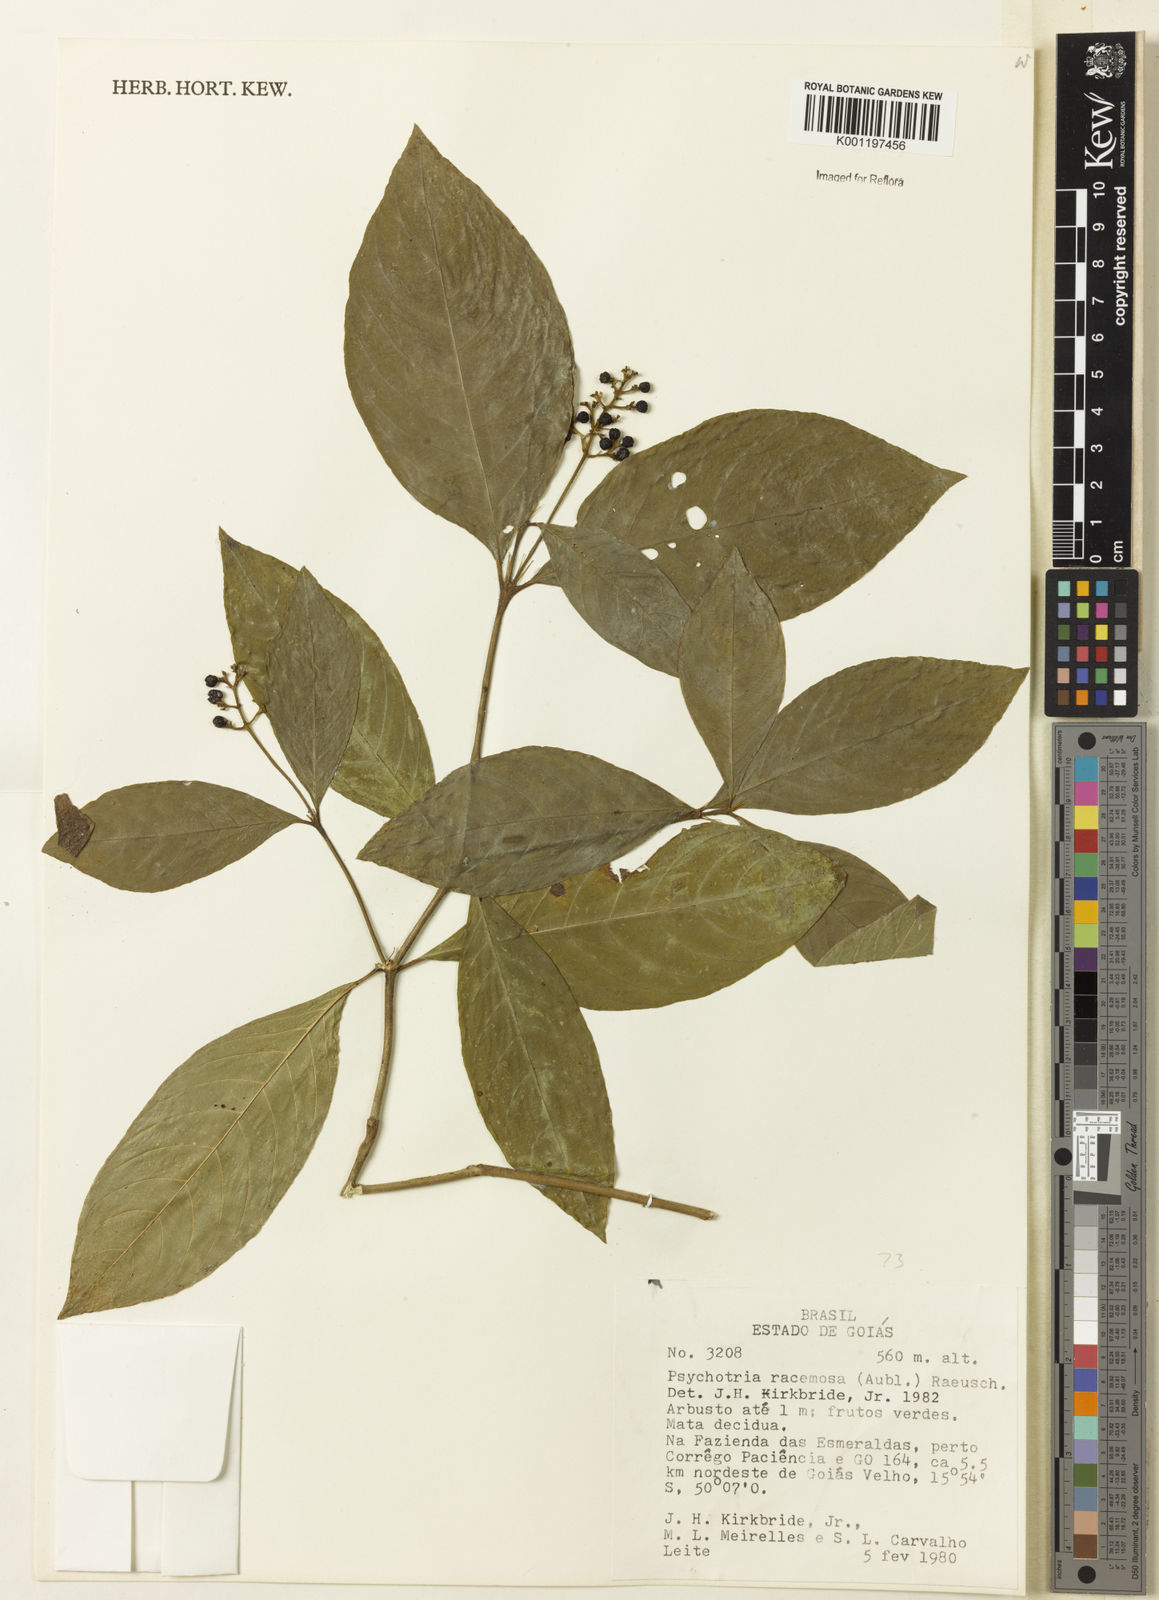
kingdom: Plantae
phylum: Tracheophyta
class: Magnoliopsida
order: Gentianales
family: Rubiaceae
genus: Palicourea
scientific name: Palicourea racemosa
